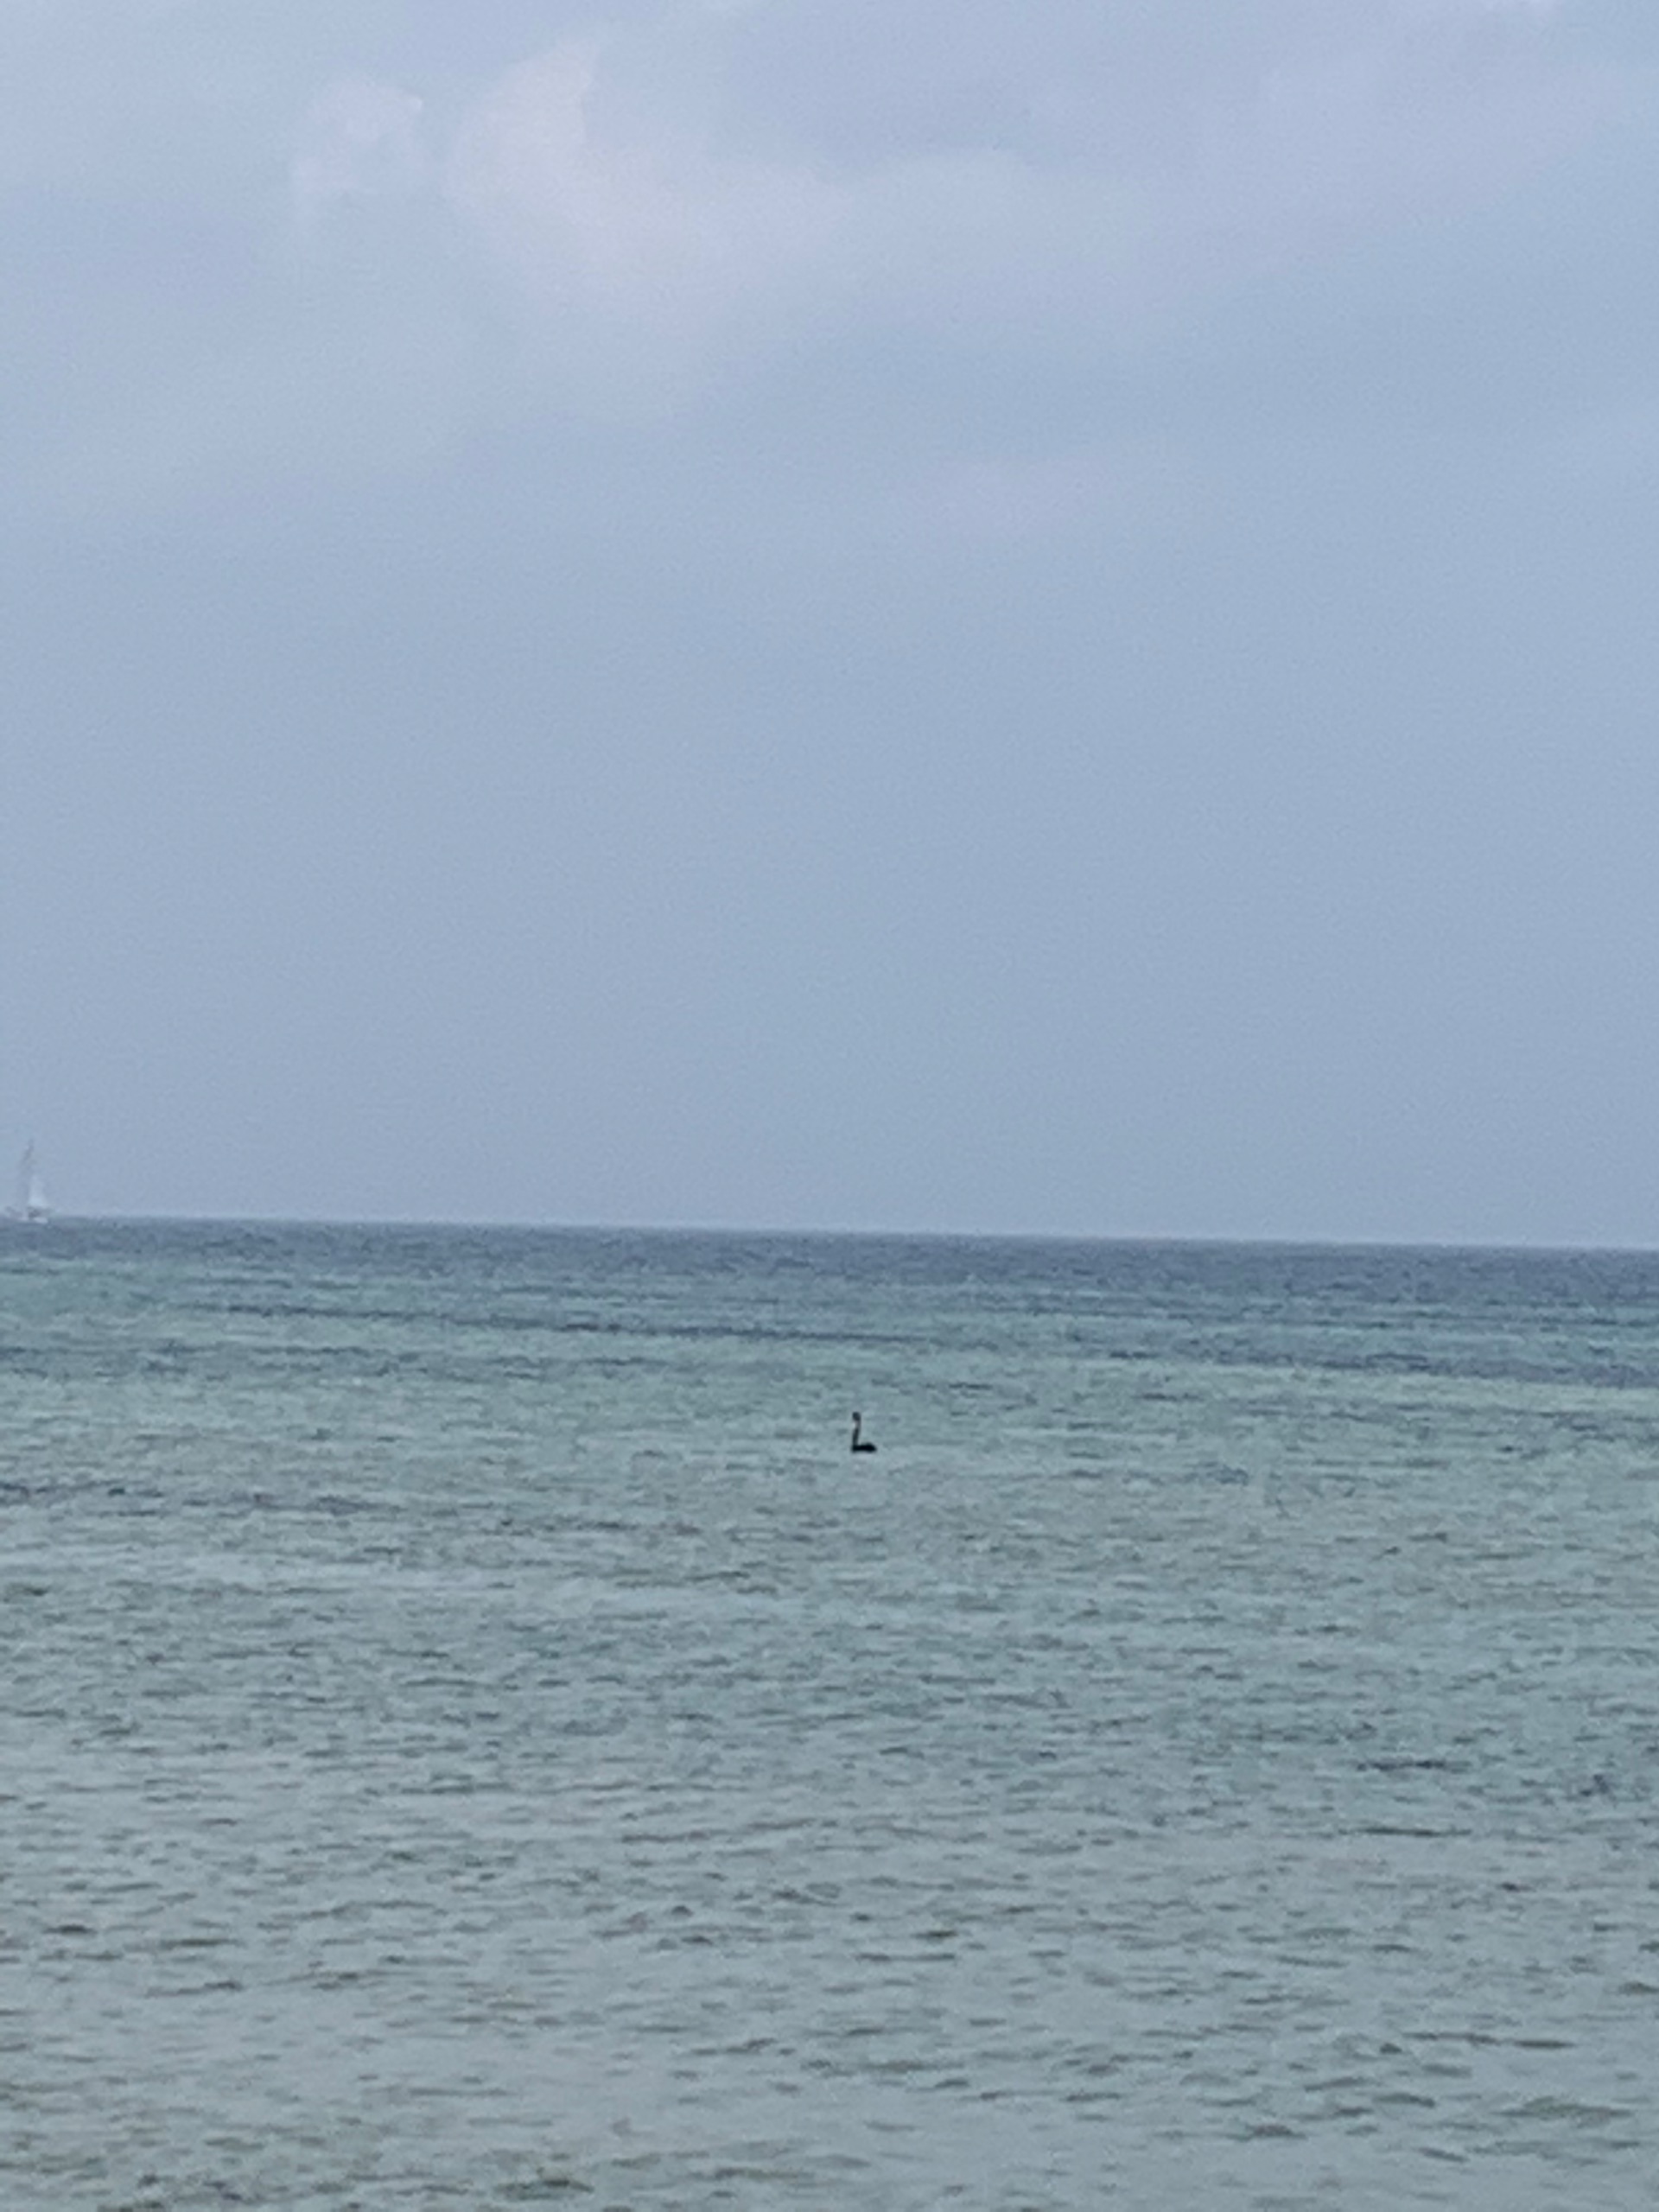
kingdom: Animalia
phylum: Chordata
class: Aves
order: Anseriformes
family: Anatidae
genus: Cygnus
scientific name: Cygnus atratus
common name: Sortsvane
